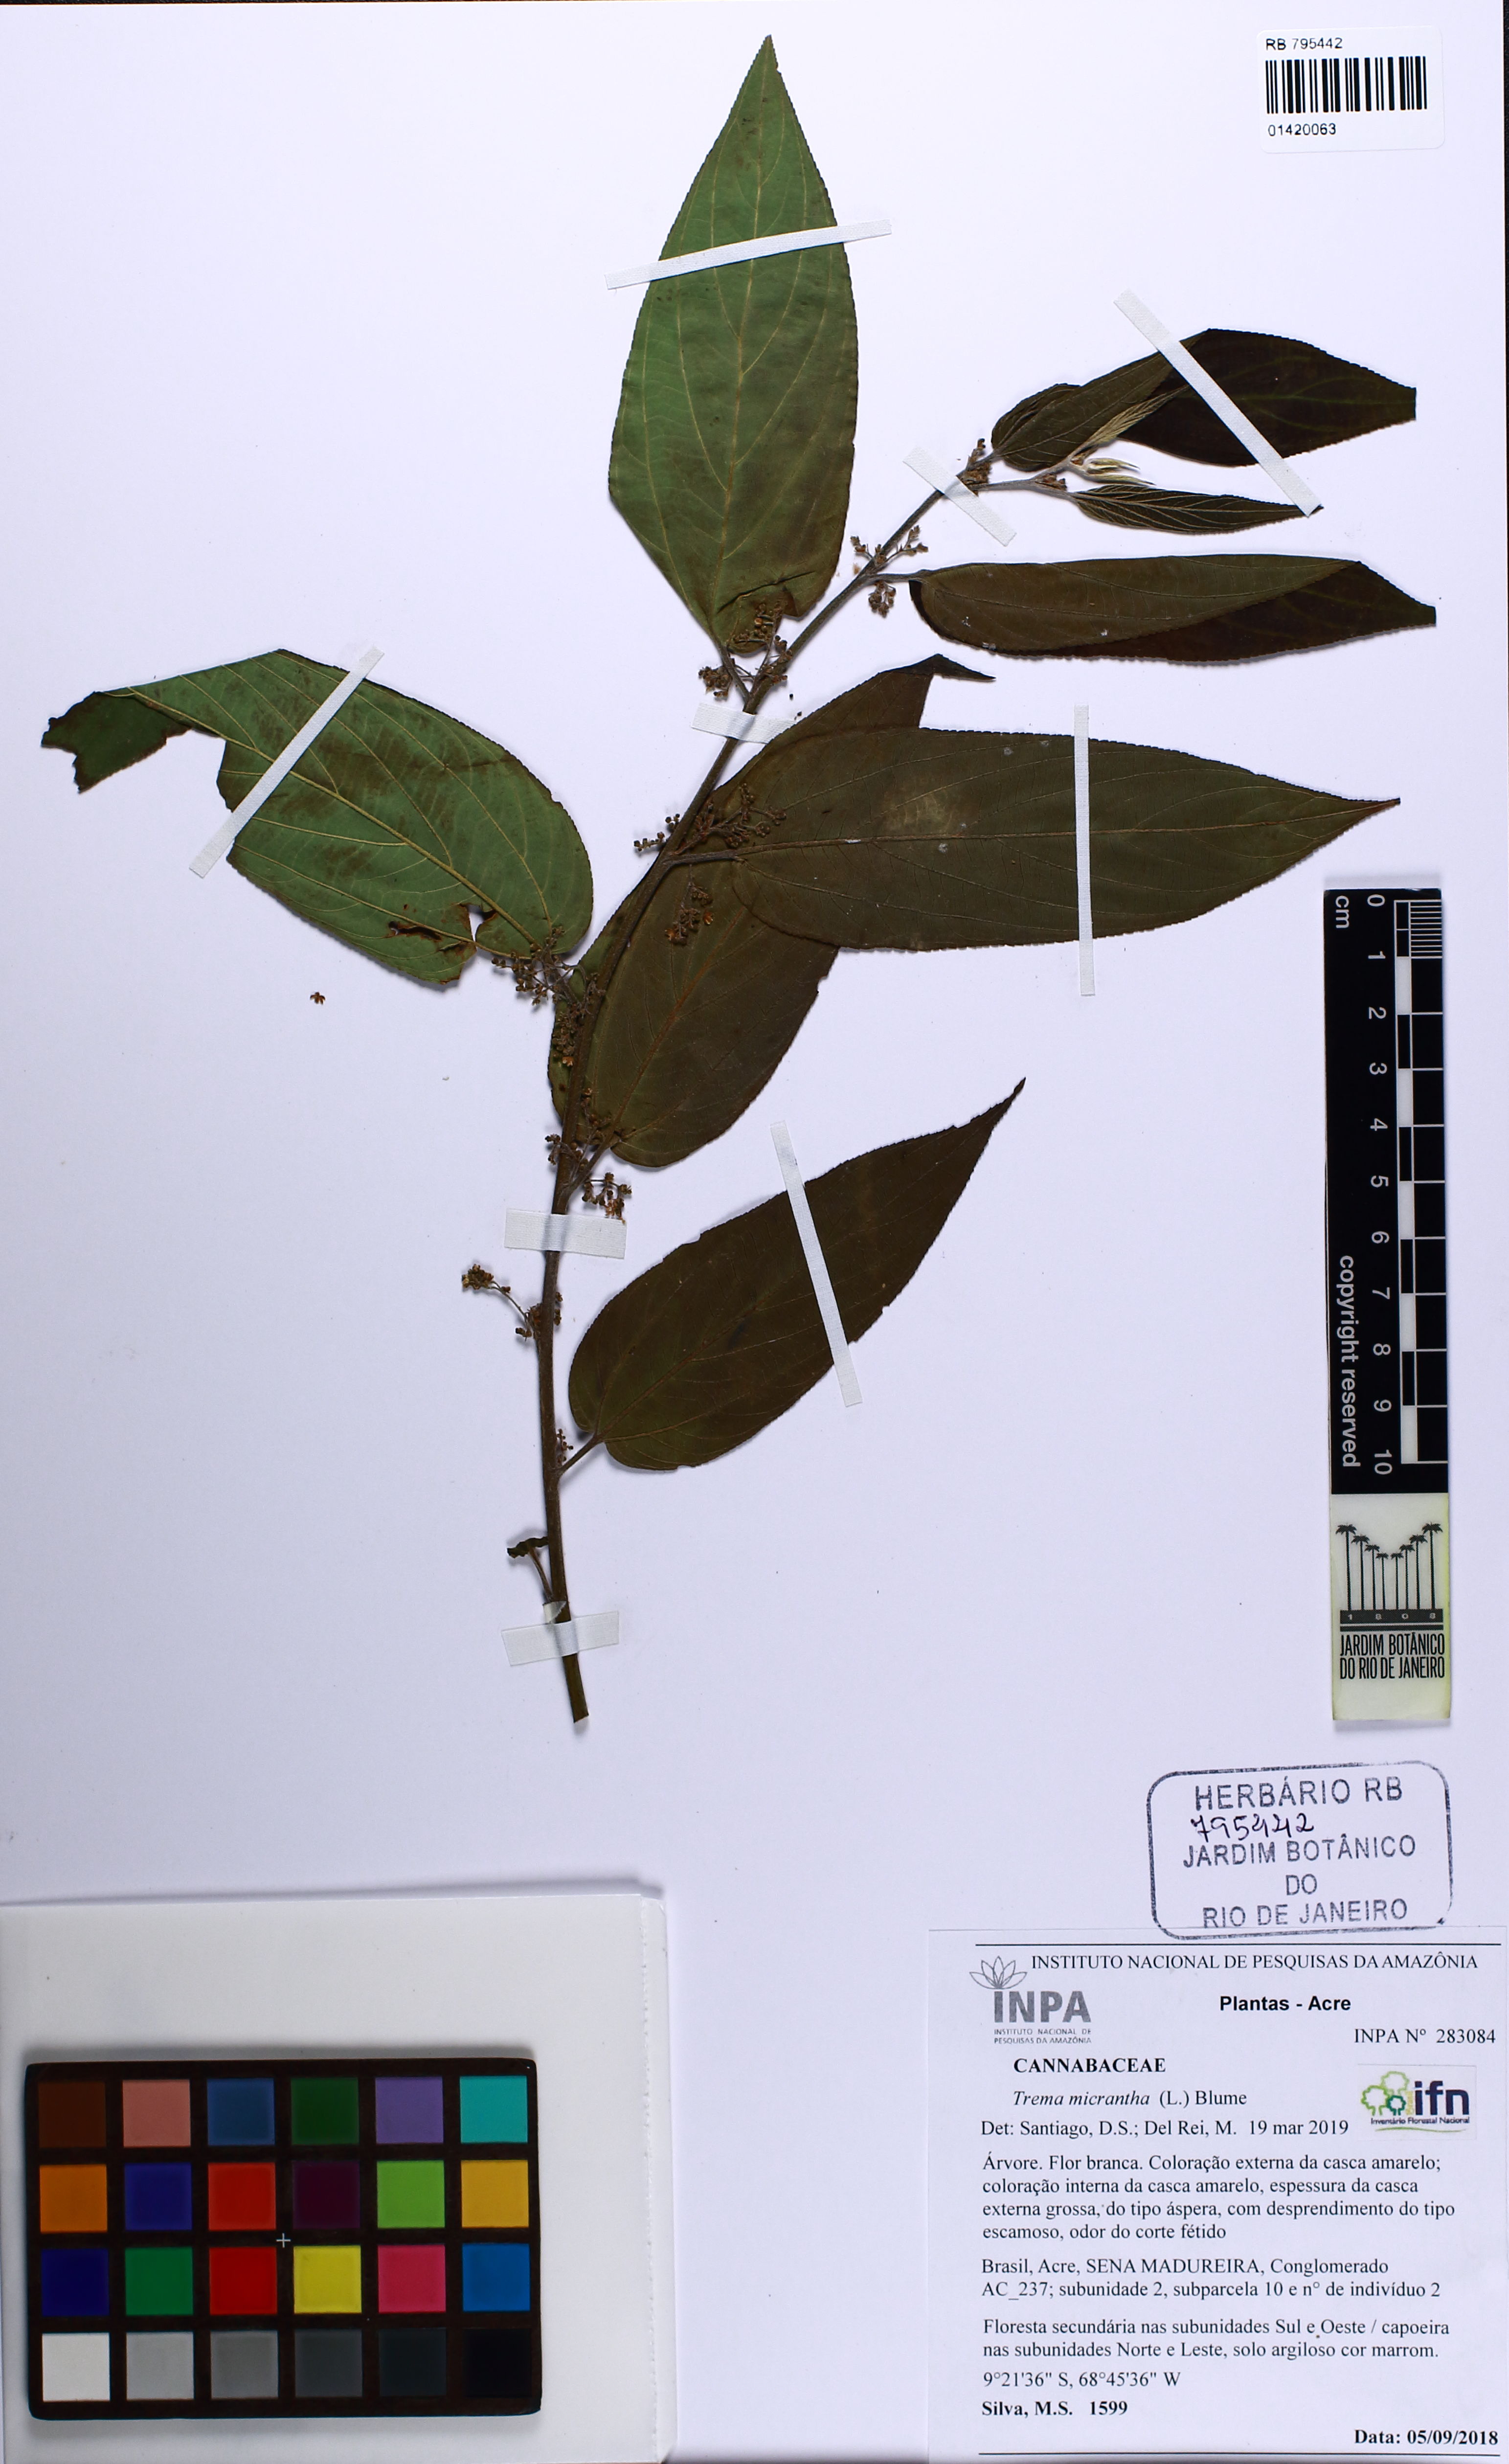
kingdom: Plantae
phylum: Tracheophyta
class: Magnoliopsida
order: Rosales
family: Cannabaceae
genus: Trema
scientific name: Trema micranthum
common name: Jamaican nettletree
